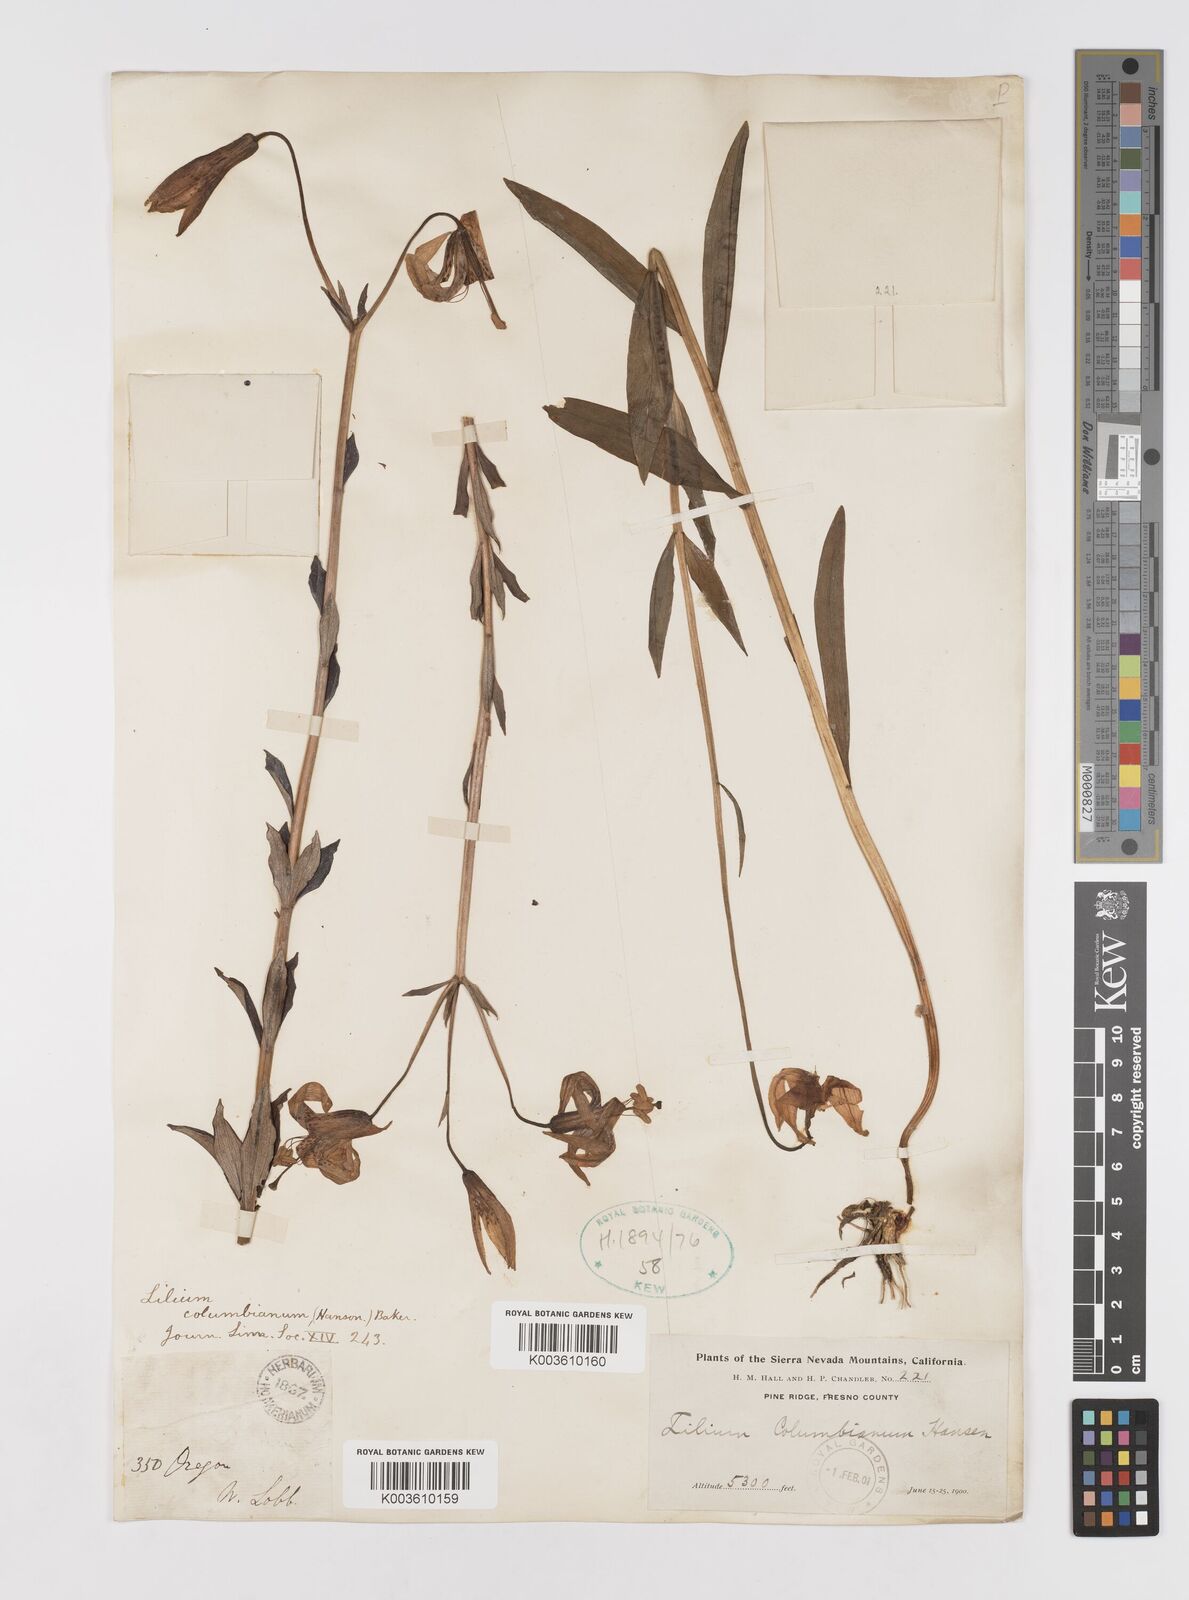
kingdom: Plantae
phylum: Tracheophyta
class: Liliopsida
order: Liliales
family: Liliaceae
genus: Lilium
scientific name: Lilium
